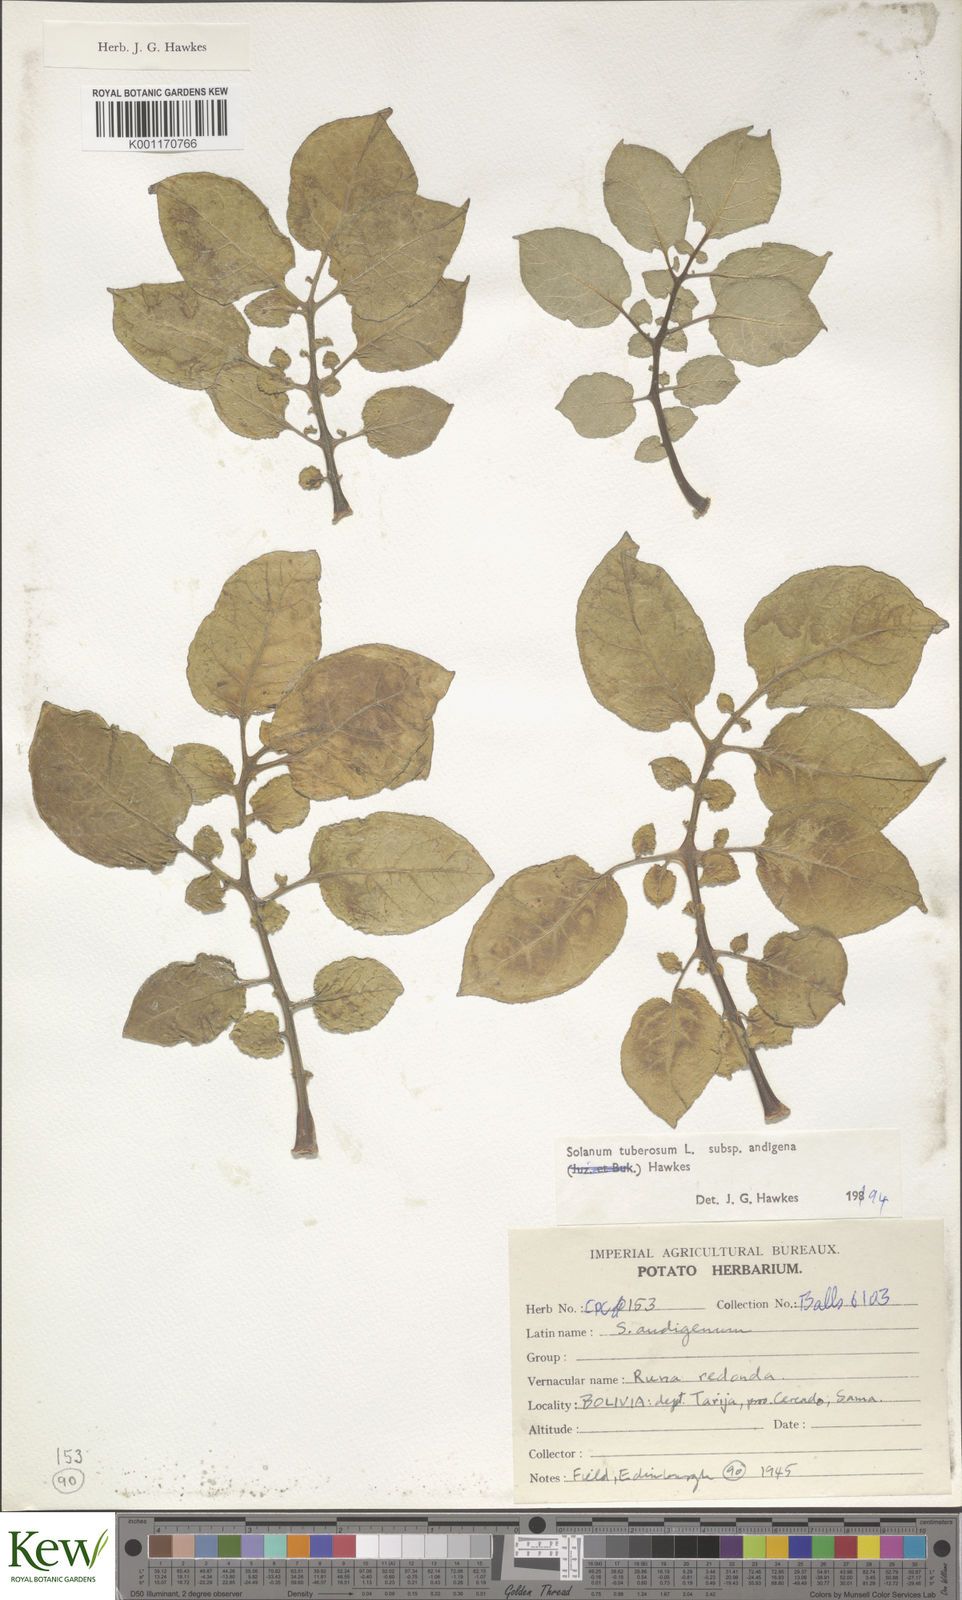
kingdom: Plantae
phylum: Tracheophyta
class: Magnoliopsida
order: Solanales
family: Solanaceae
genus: Solanum
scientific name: Solanum tuberosum
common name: Potato
